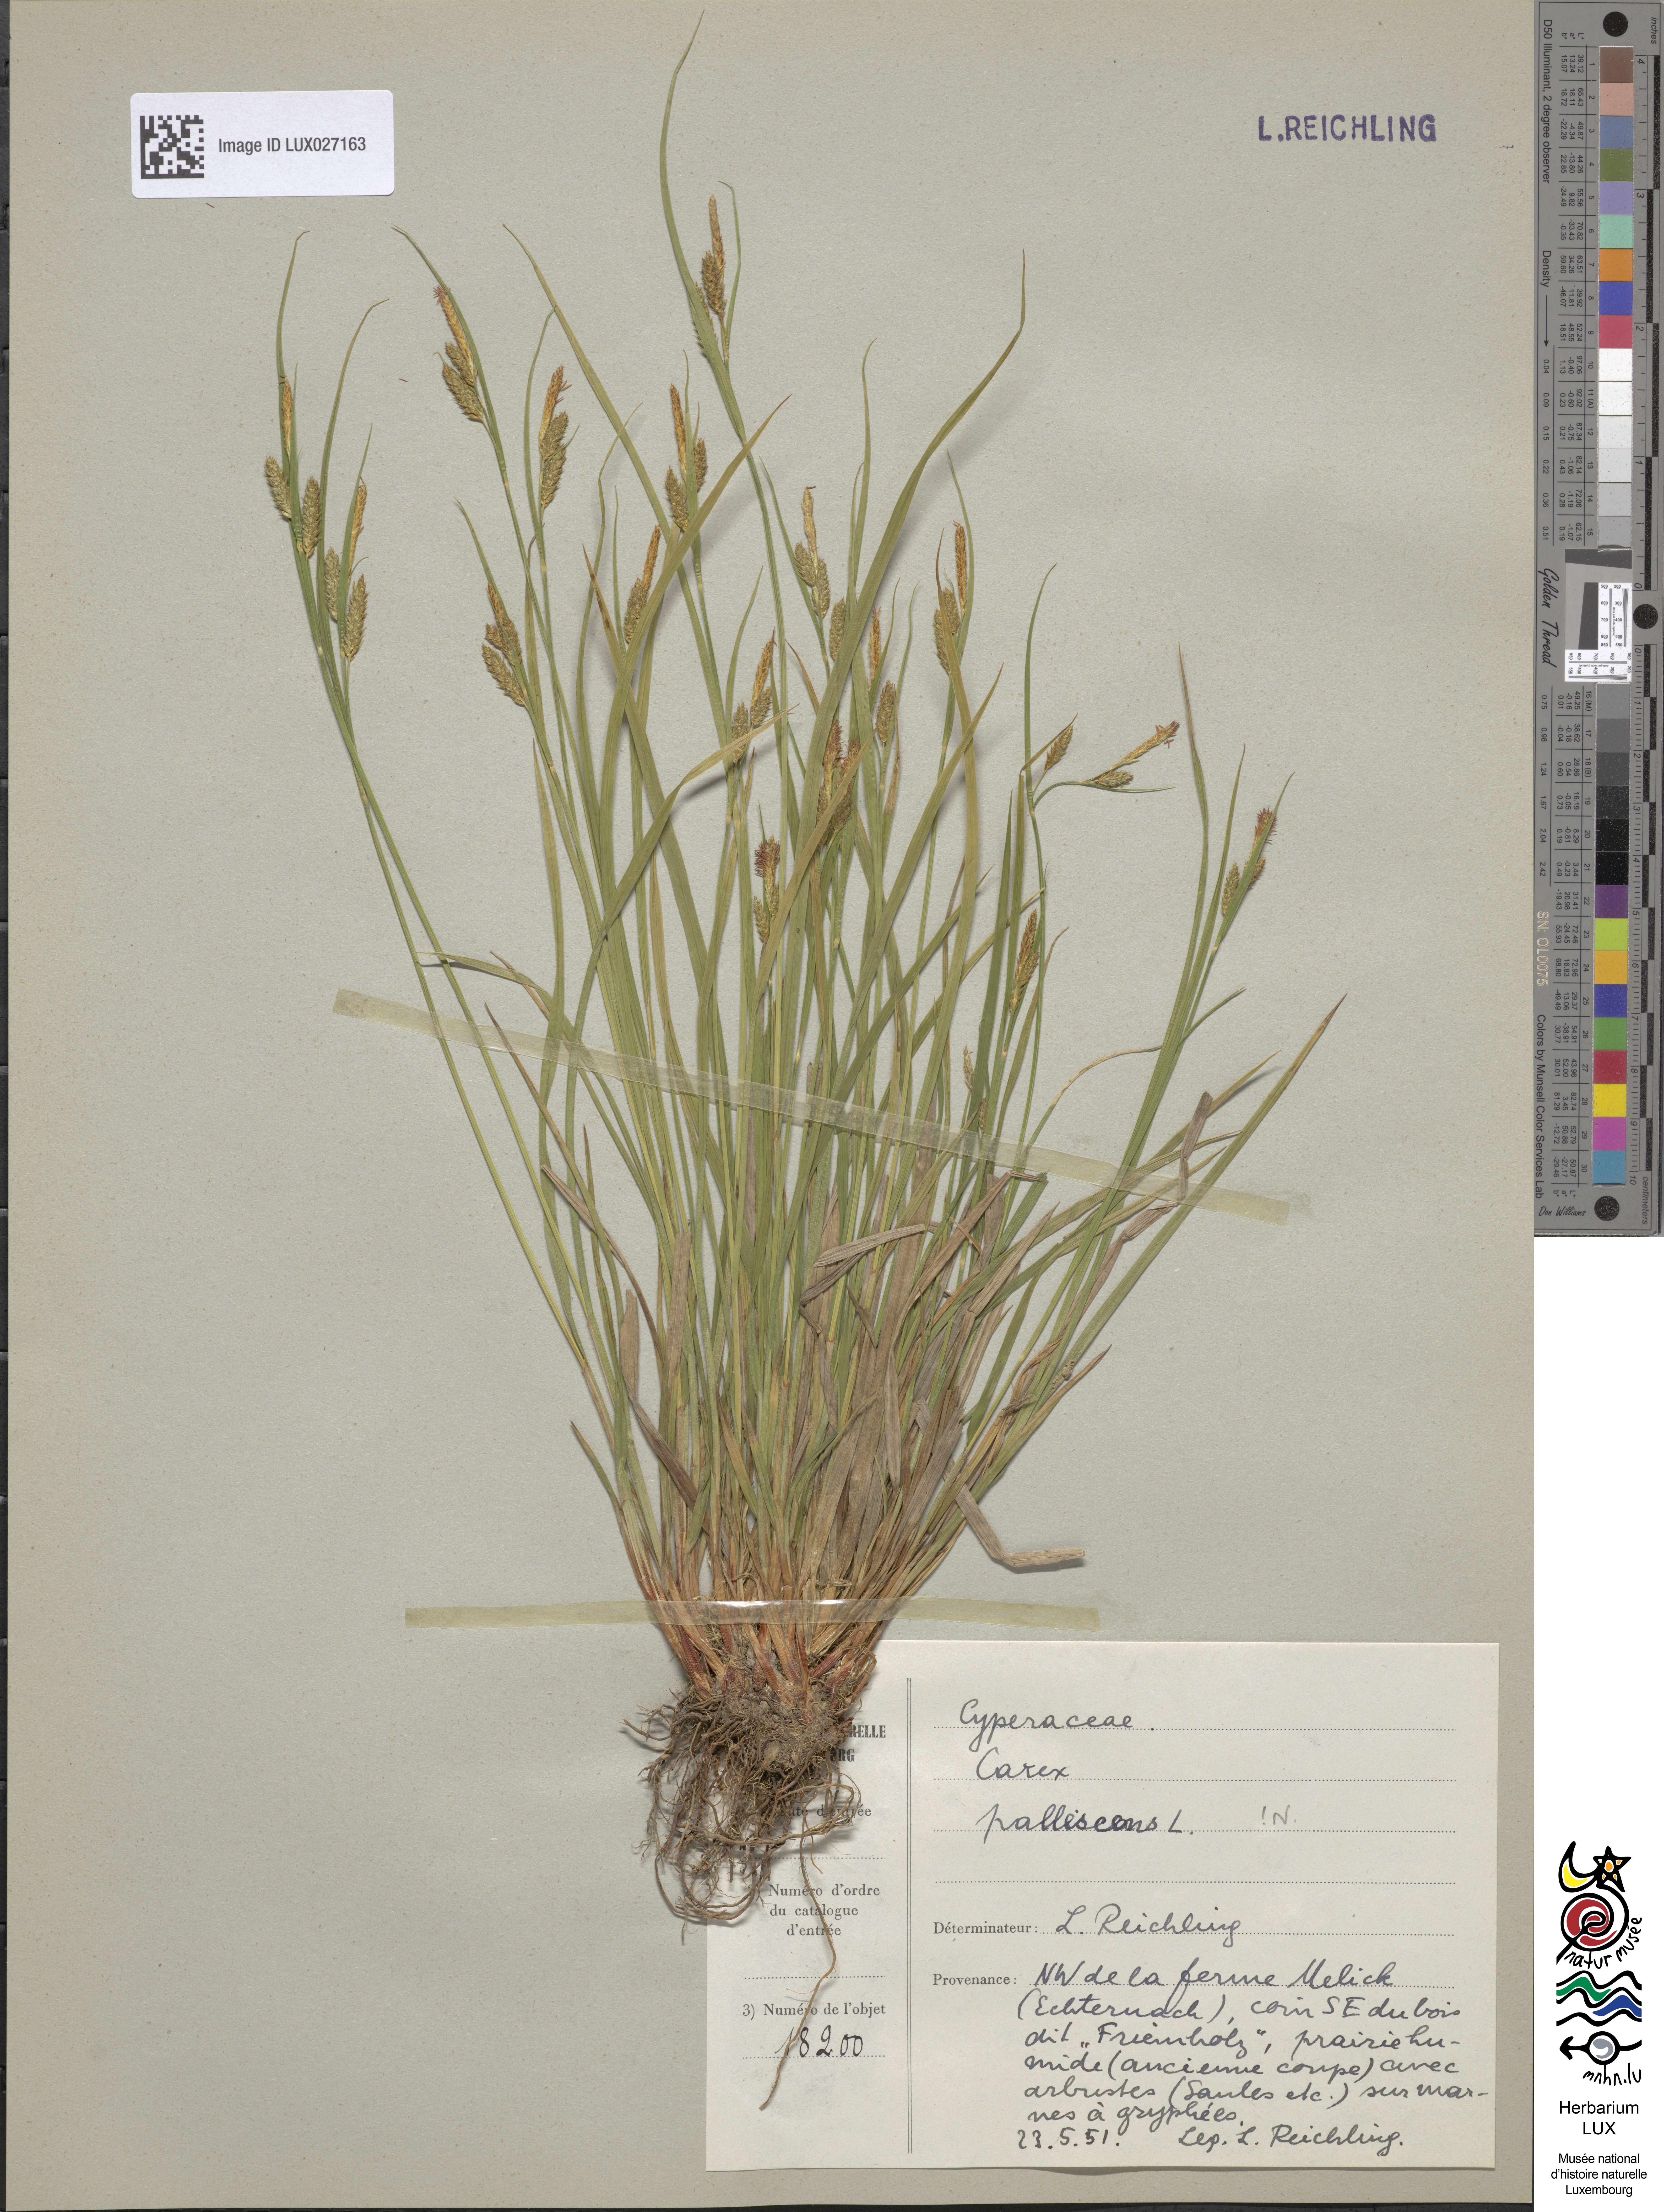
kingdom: Plantae
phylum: Tracheophyta
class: Liliopsida
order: Poales
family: Cyperaceae
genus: Carex
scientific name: Carex pallescens
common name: Pale sedge
